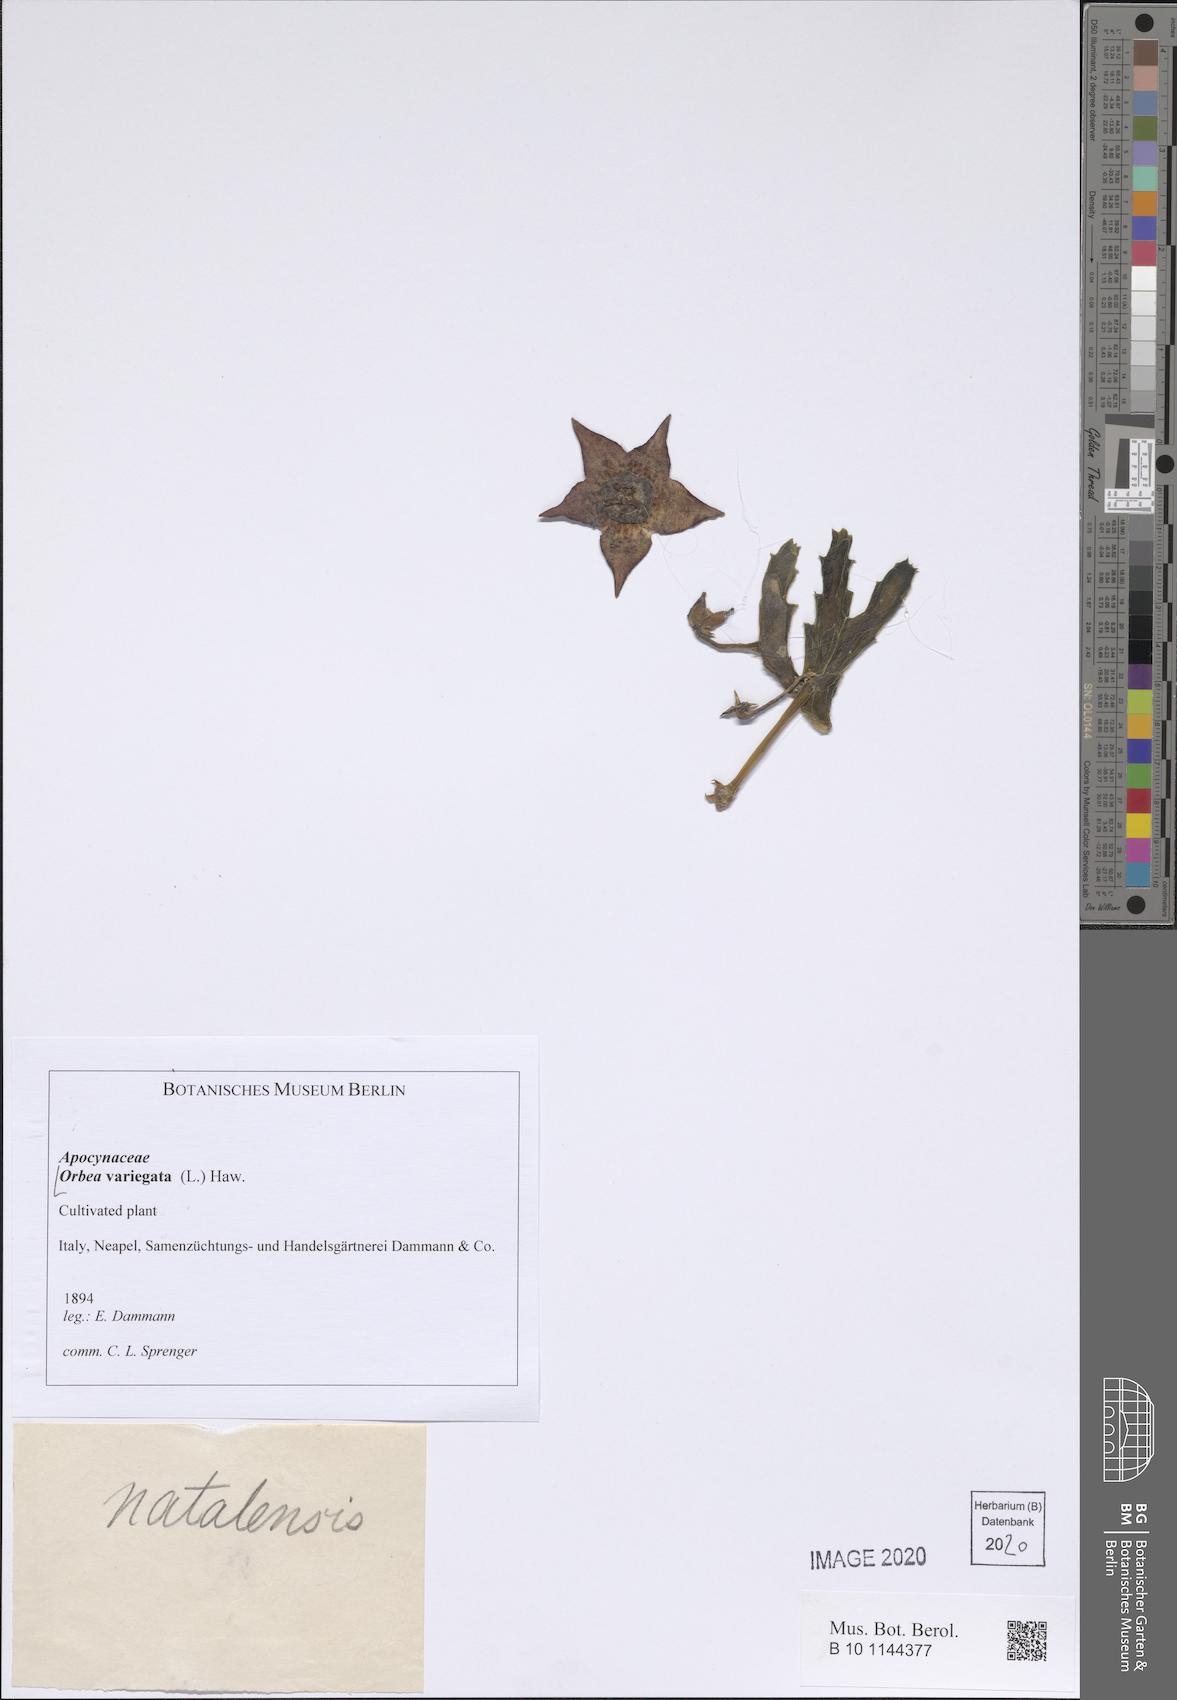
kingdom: Plantae
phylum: Tracheophyta
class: Magnoliopsida
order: Gentianales
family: Apocynaceae
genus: Ceropegia
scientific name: Ceropegia mixta
